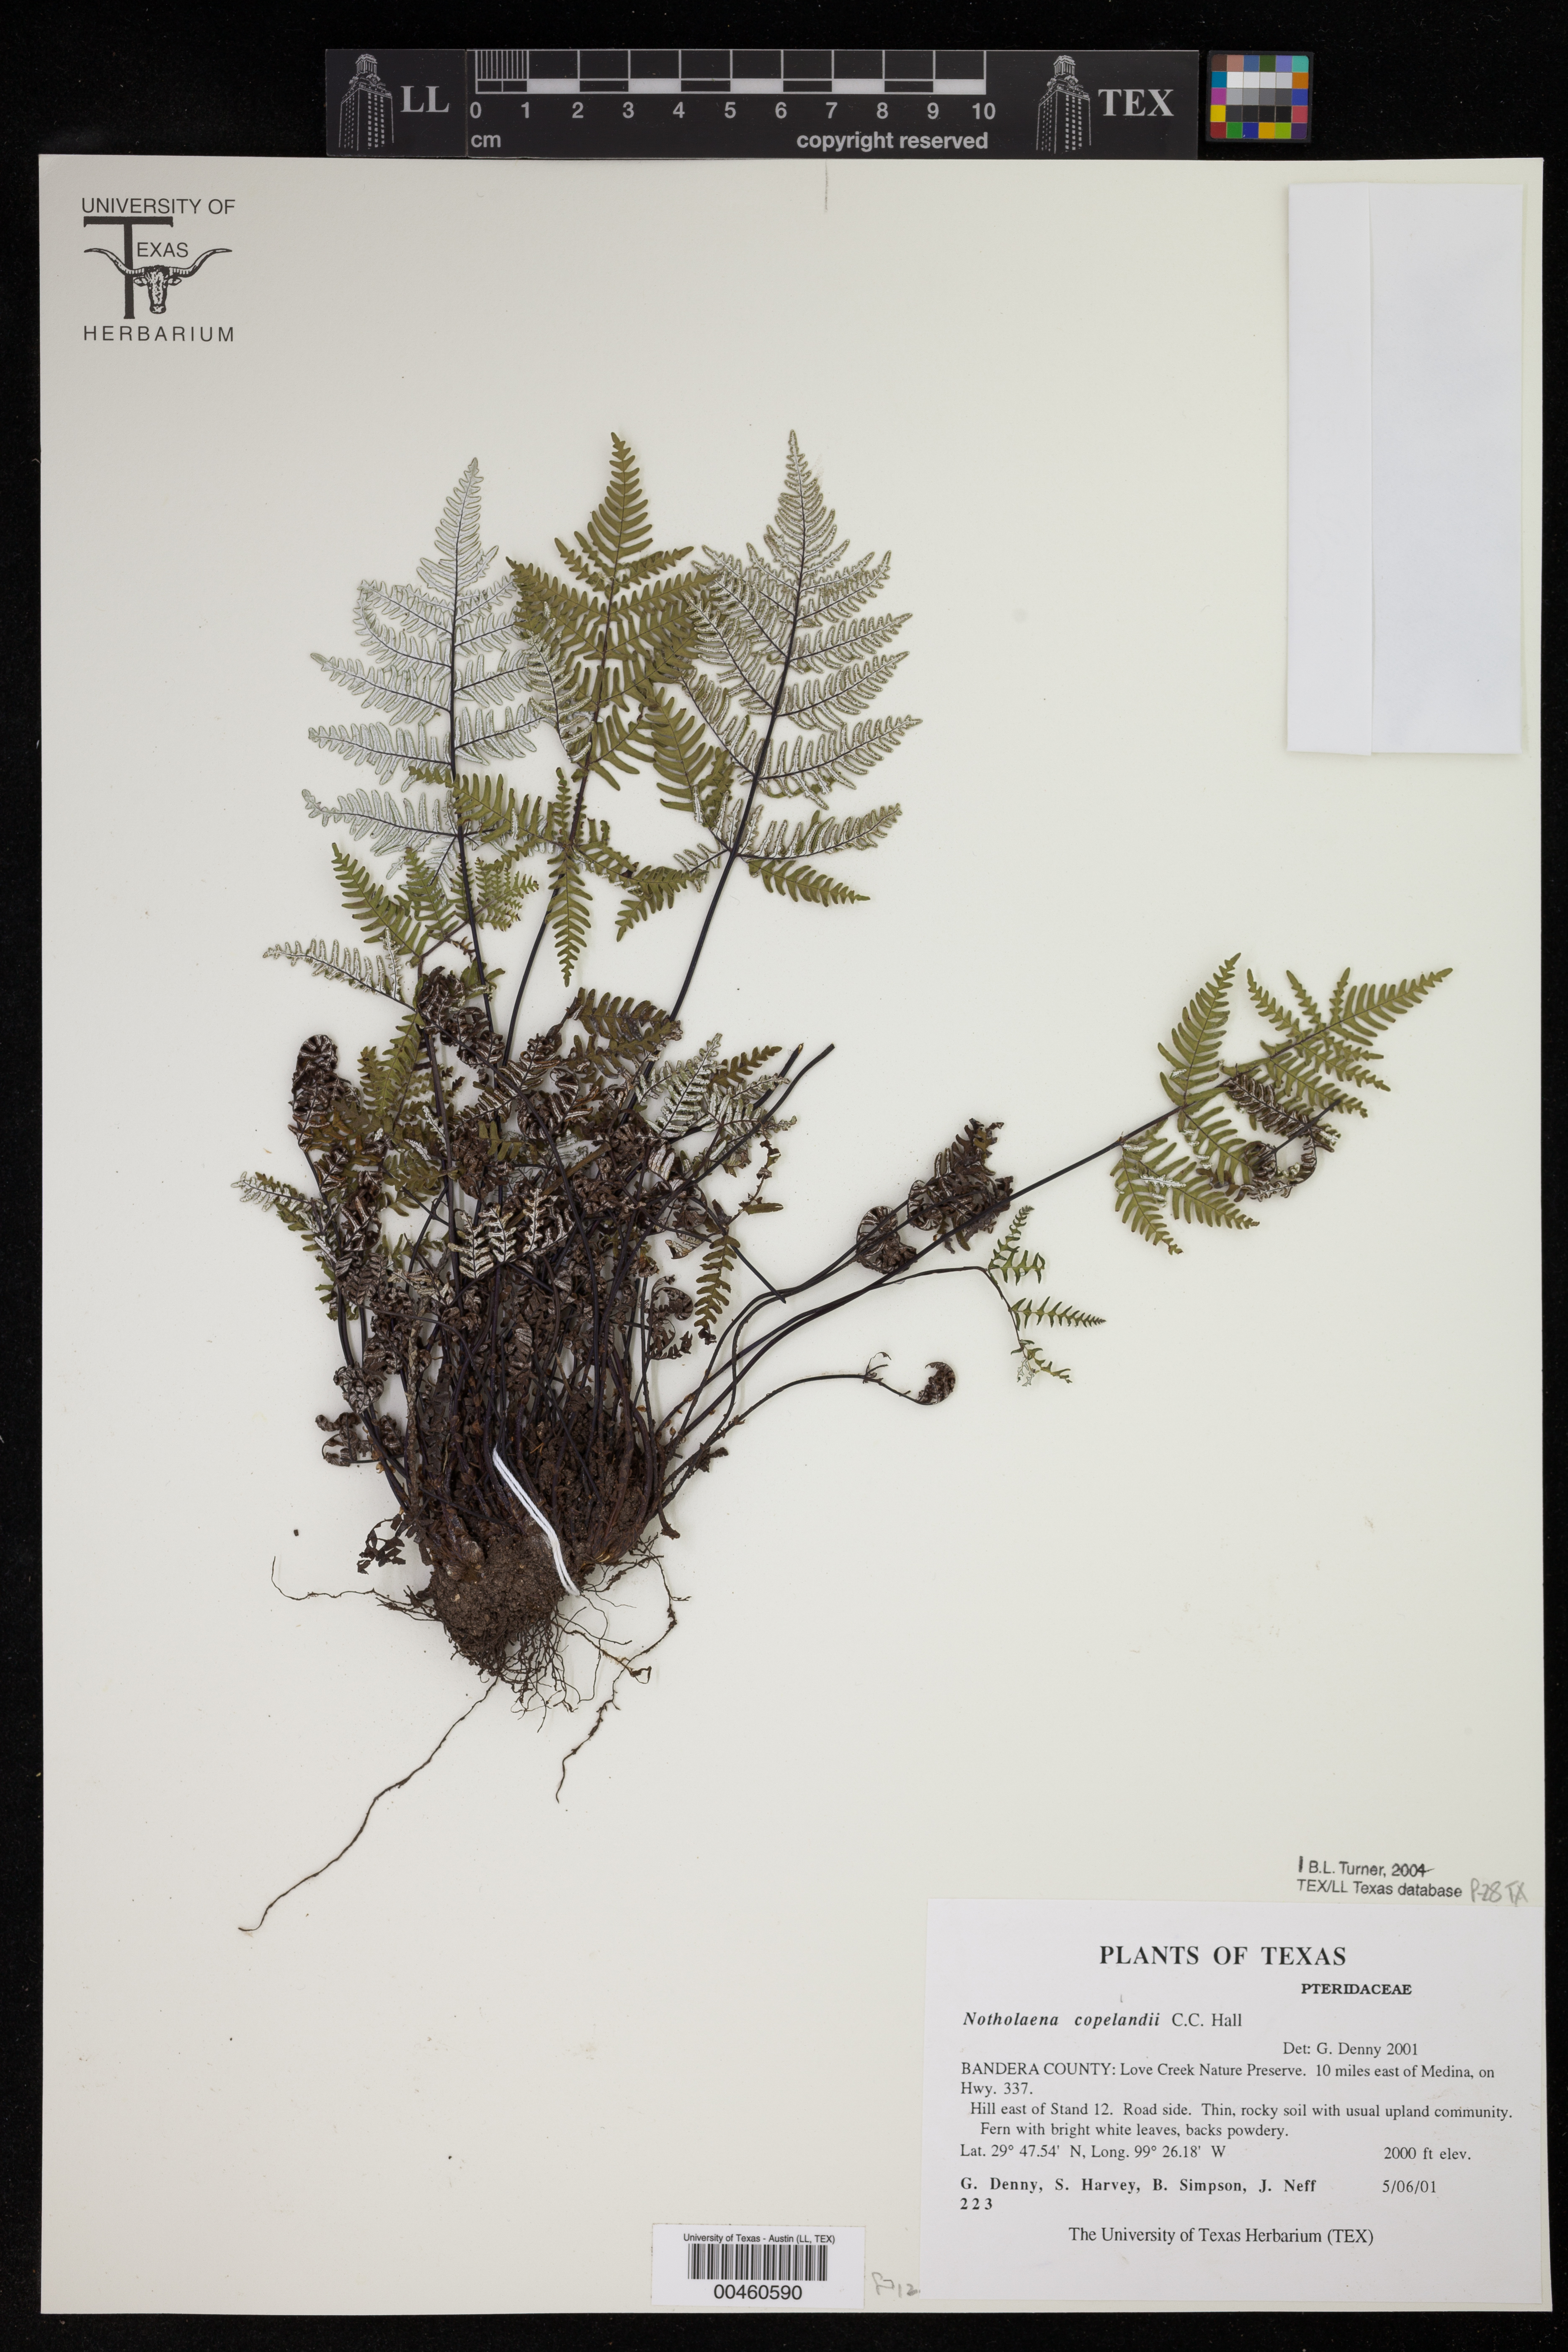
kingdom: Plantae
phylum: Tracheophyta
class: Polypodiopsida
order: Polypodiales
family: Pteridaceae
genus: Notholaena
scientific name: Notholaena candida
